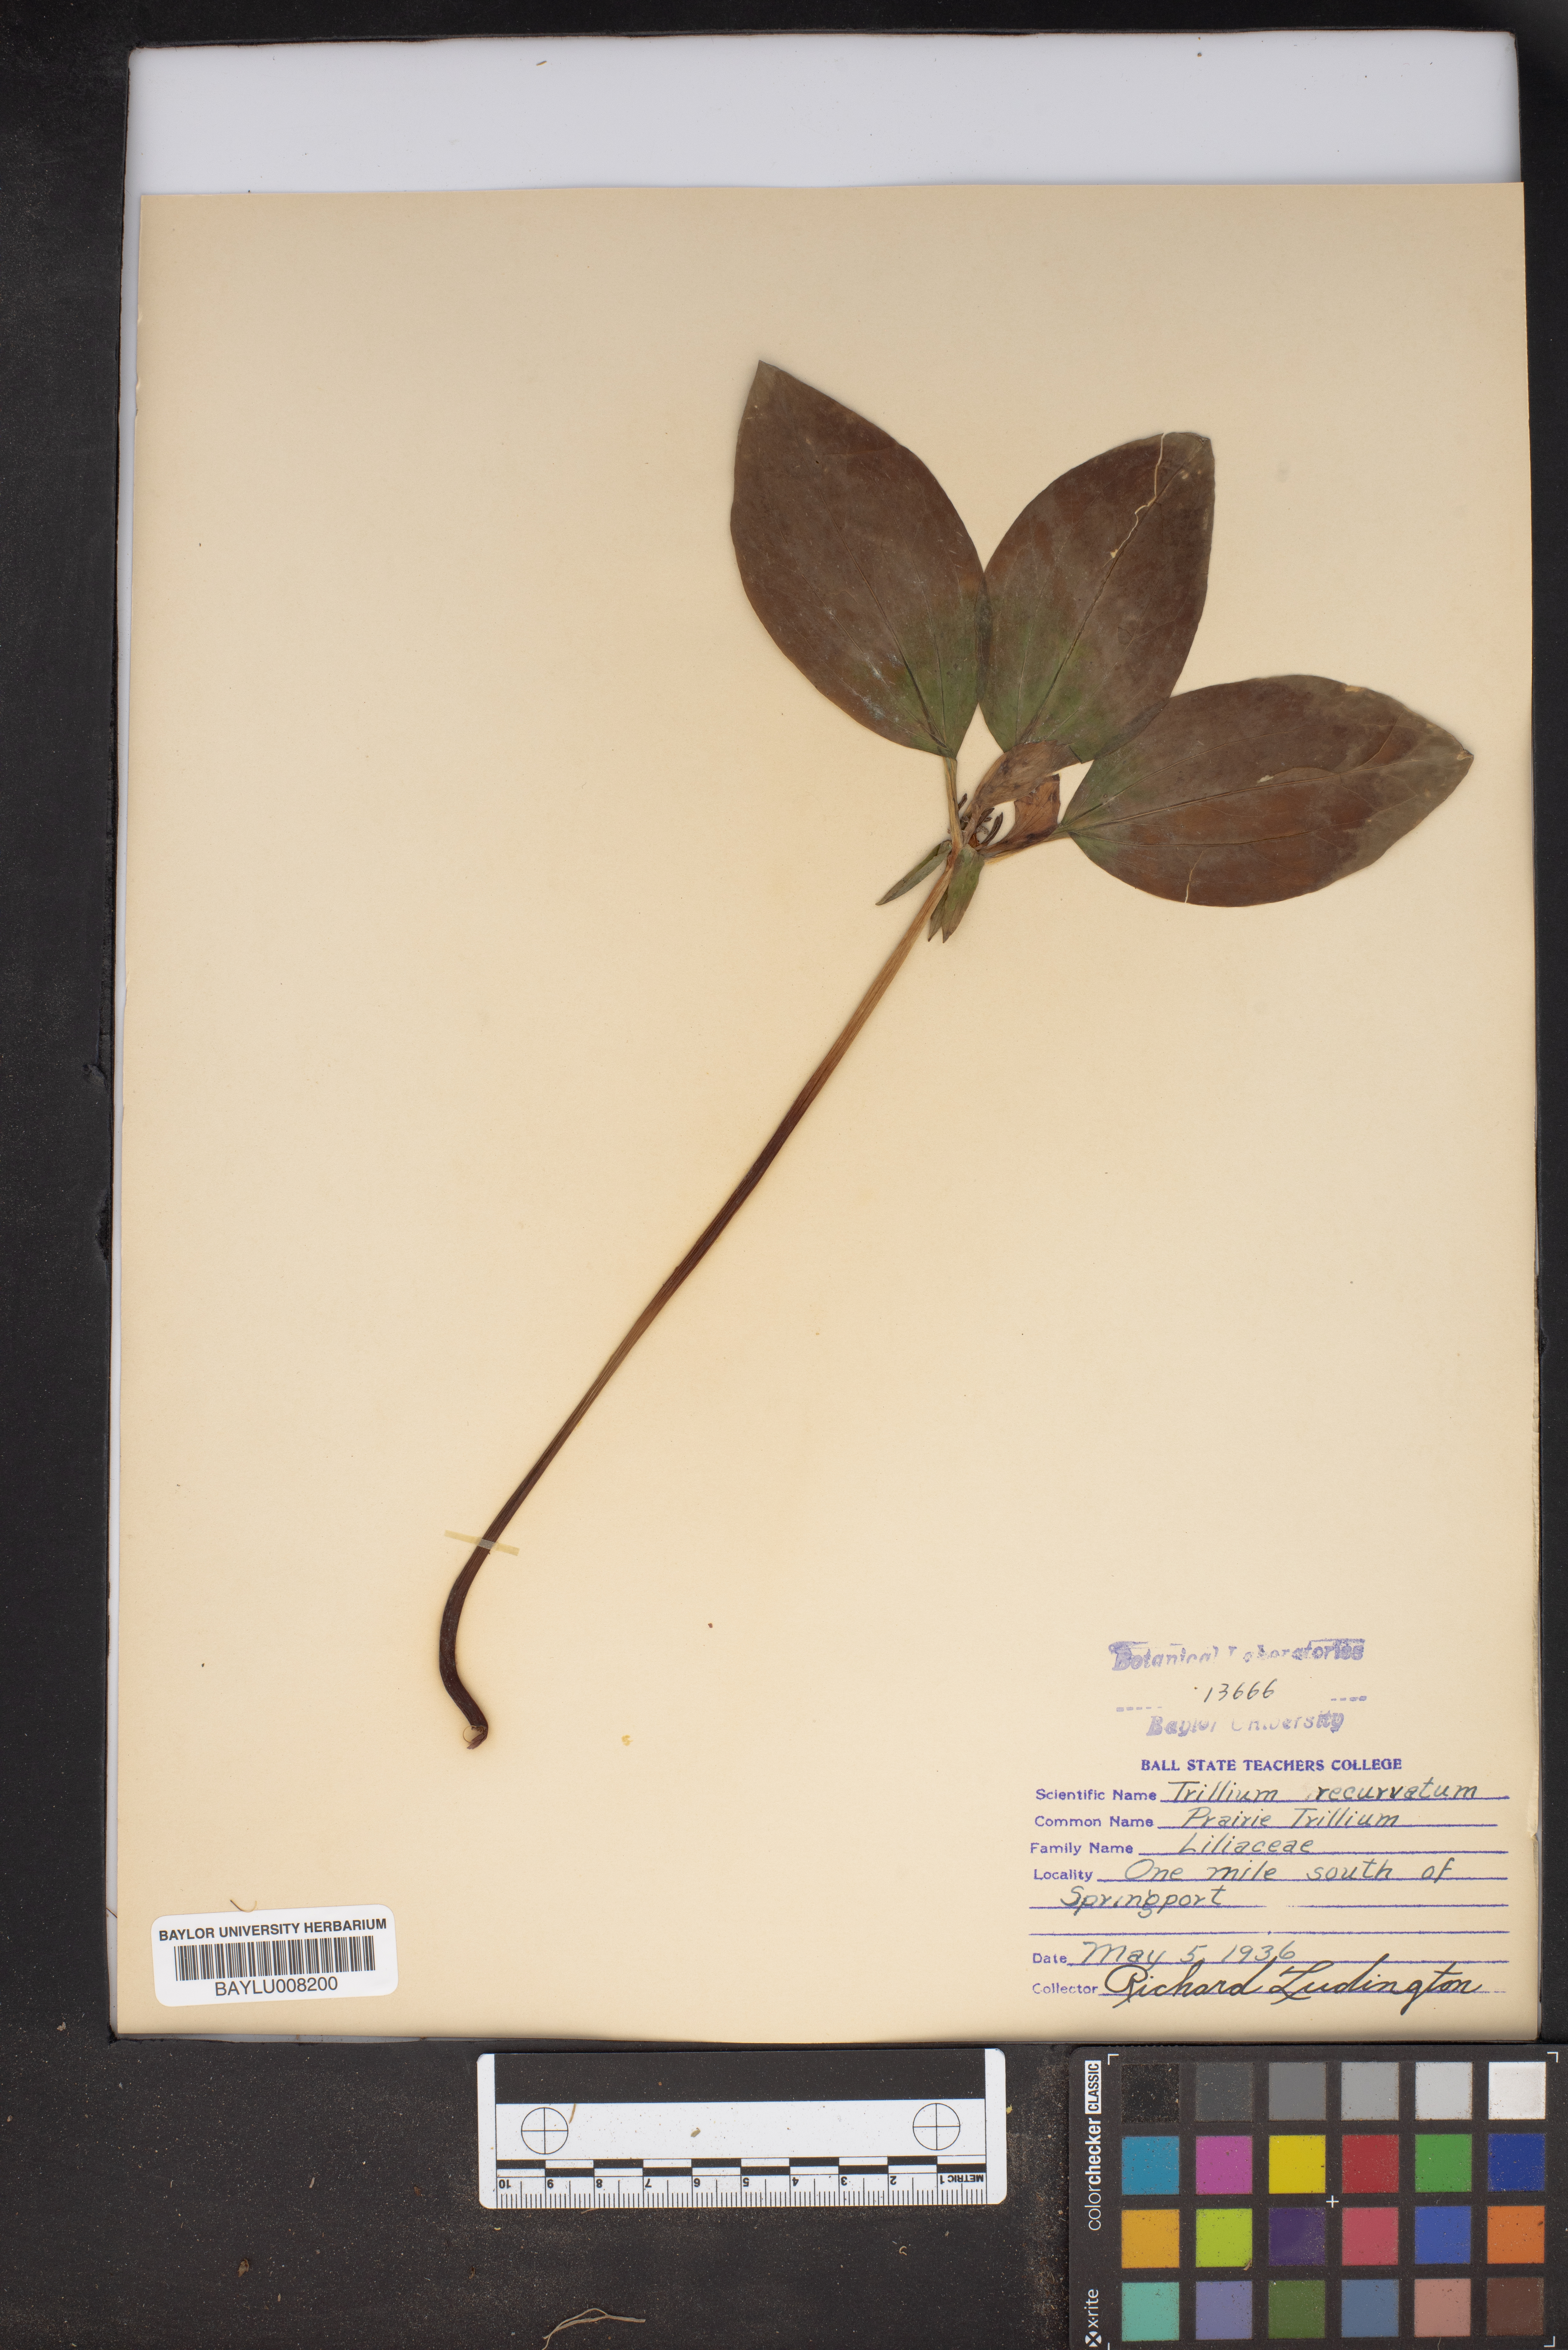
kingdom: Plantae
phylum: Tracheophyta
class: Liliopsida
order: Liliales
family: Melanthiaceae
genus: Trillium
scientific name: Trillium recurvatum
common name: Bloody butcher
